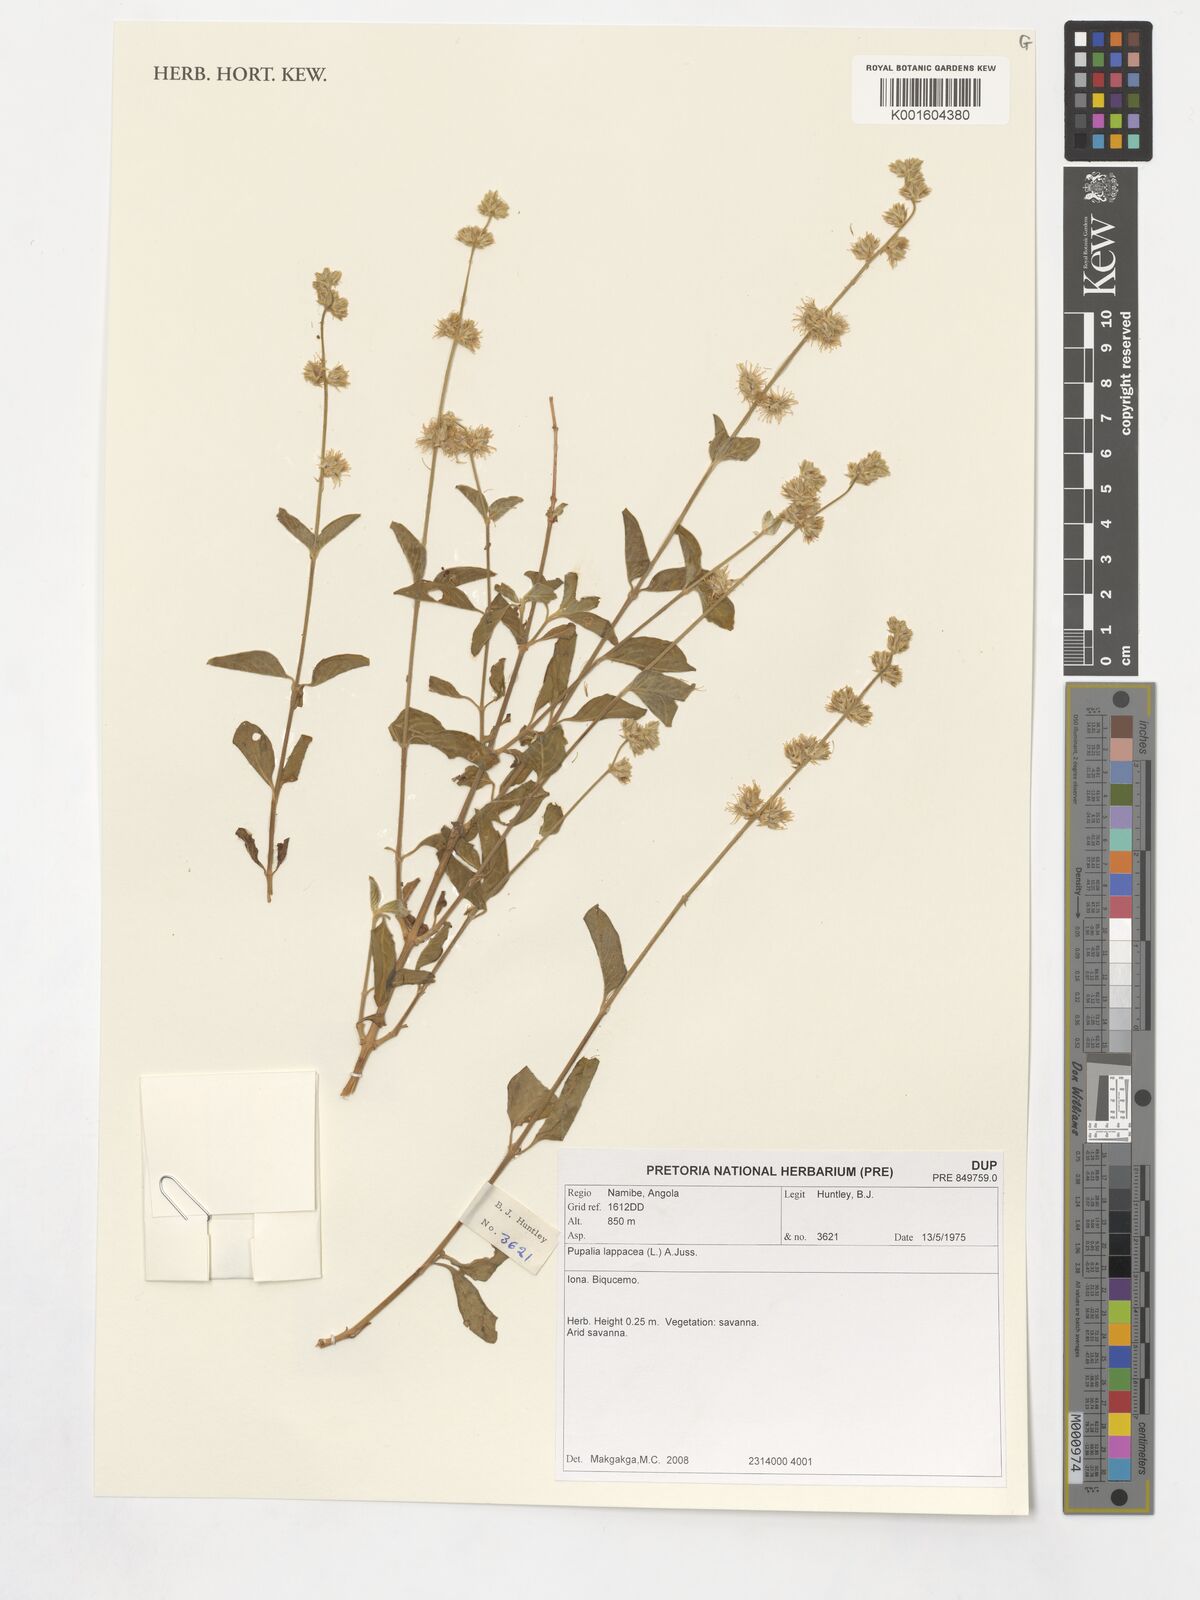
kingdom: Plantae
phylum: Tracheophyta
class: Magnoliopsida
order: Caryophyllales
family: Amaranthaceae
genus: Pupalia
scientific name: Pupalia lappacea
